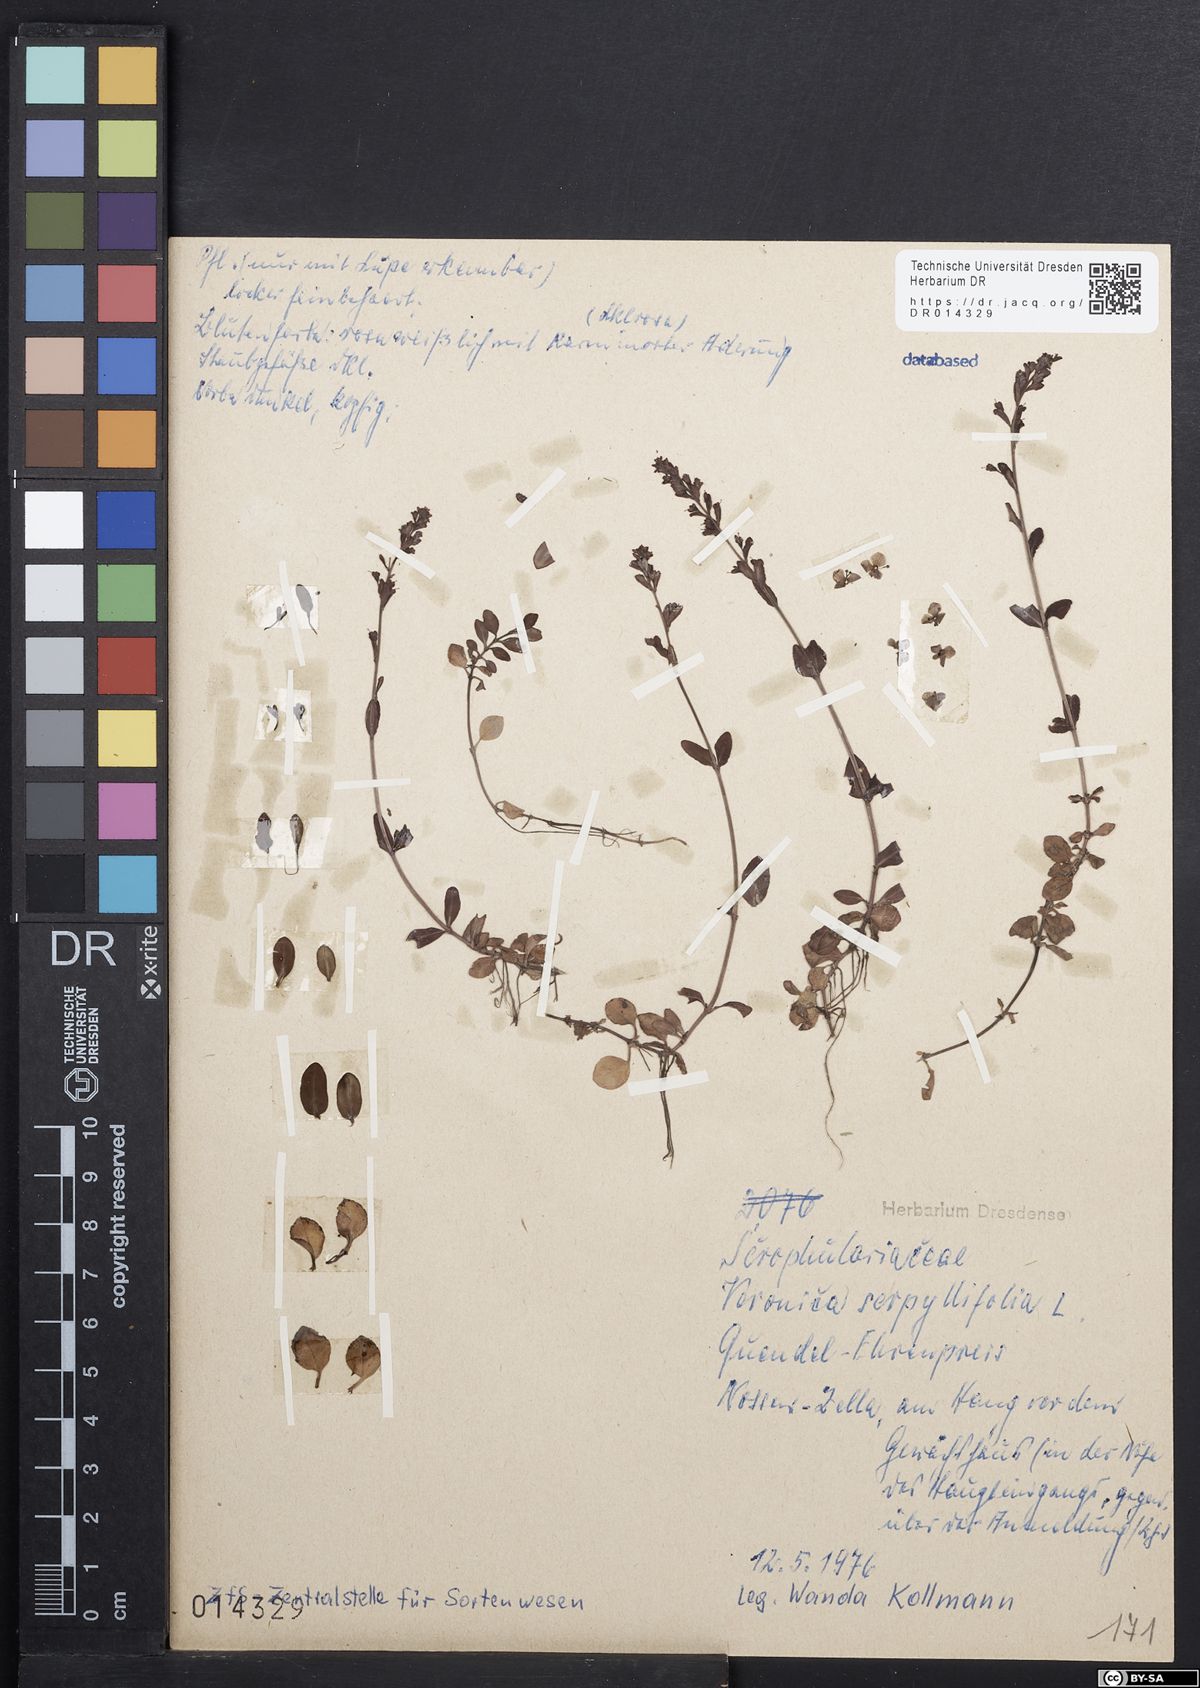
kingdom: Plantae
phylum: Tracheophyta
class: Magnoliopsida
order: Lamiales
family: Plantaginaceae
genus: Veronica
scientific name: Veronica serpyllifolia
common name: Thyme-leaved speedwell
